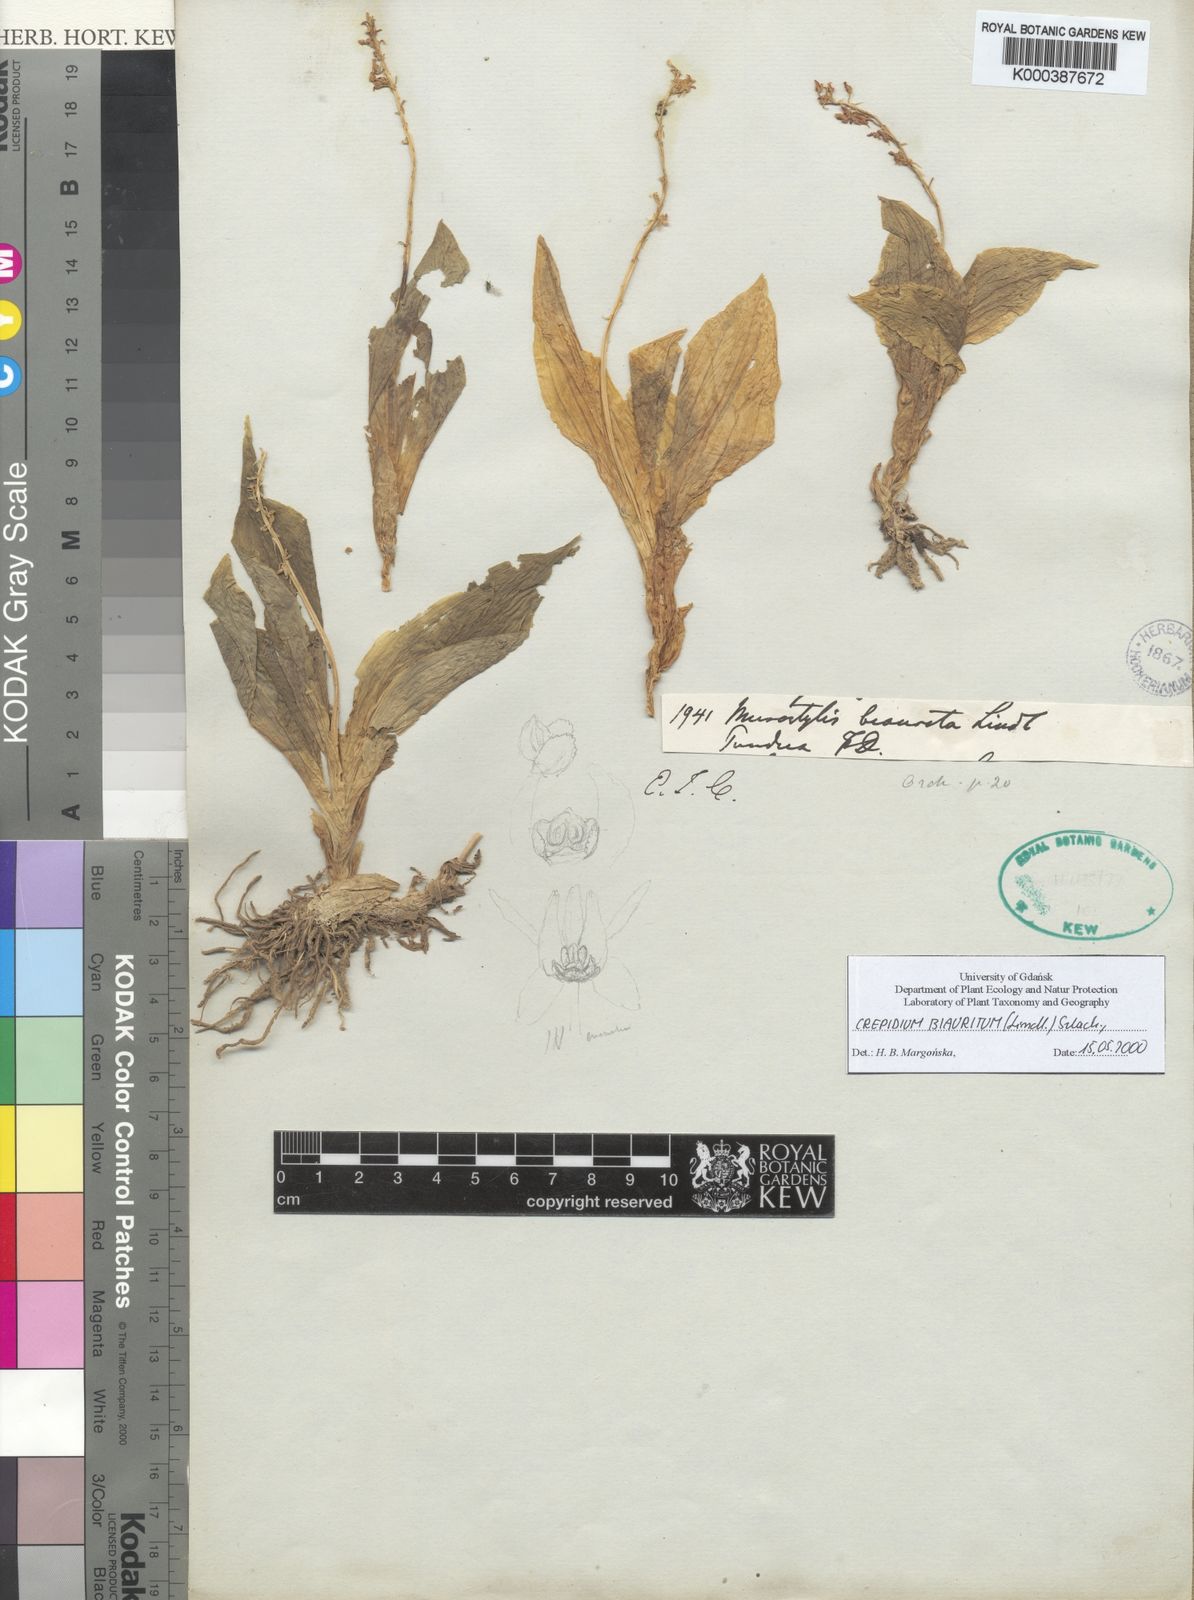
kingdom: Plantae
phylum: Tracheophyta
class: Liliopsida
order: Asparagales
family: Orchidaceae
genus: Crepidium
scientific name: Crepidium biauritum
